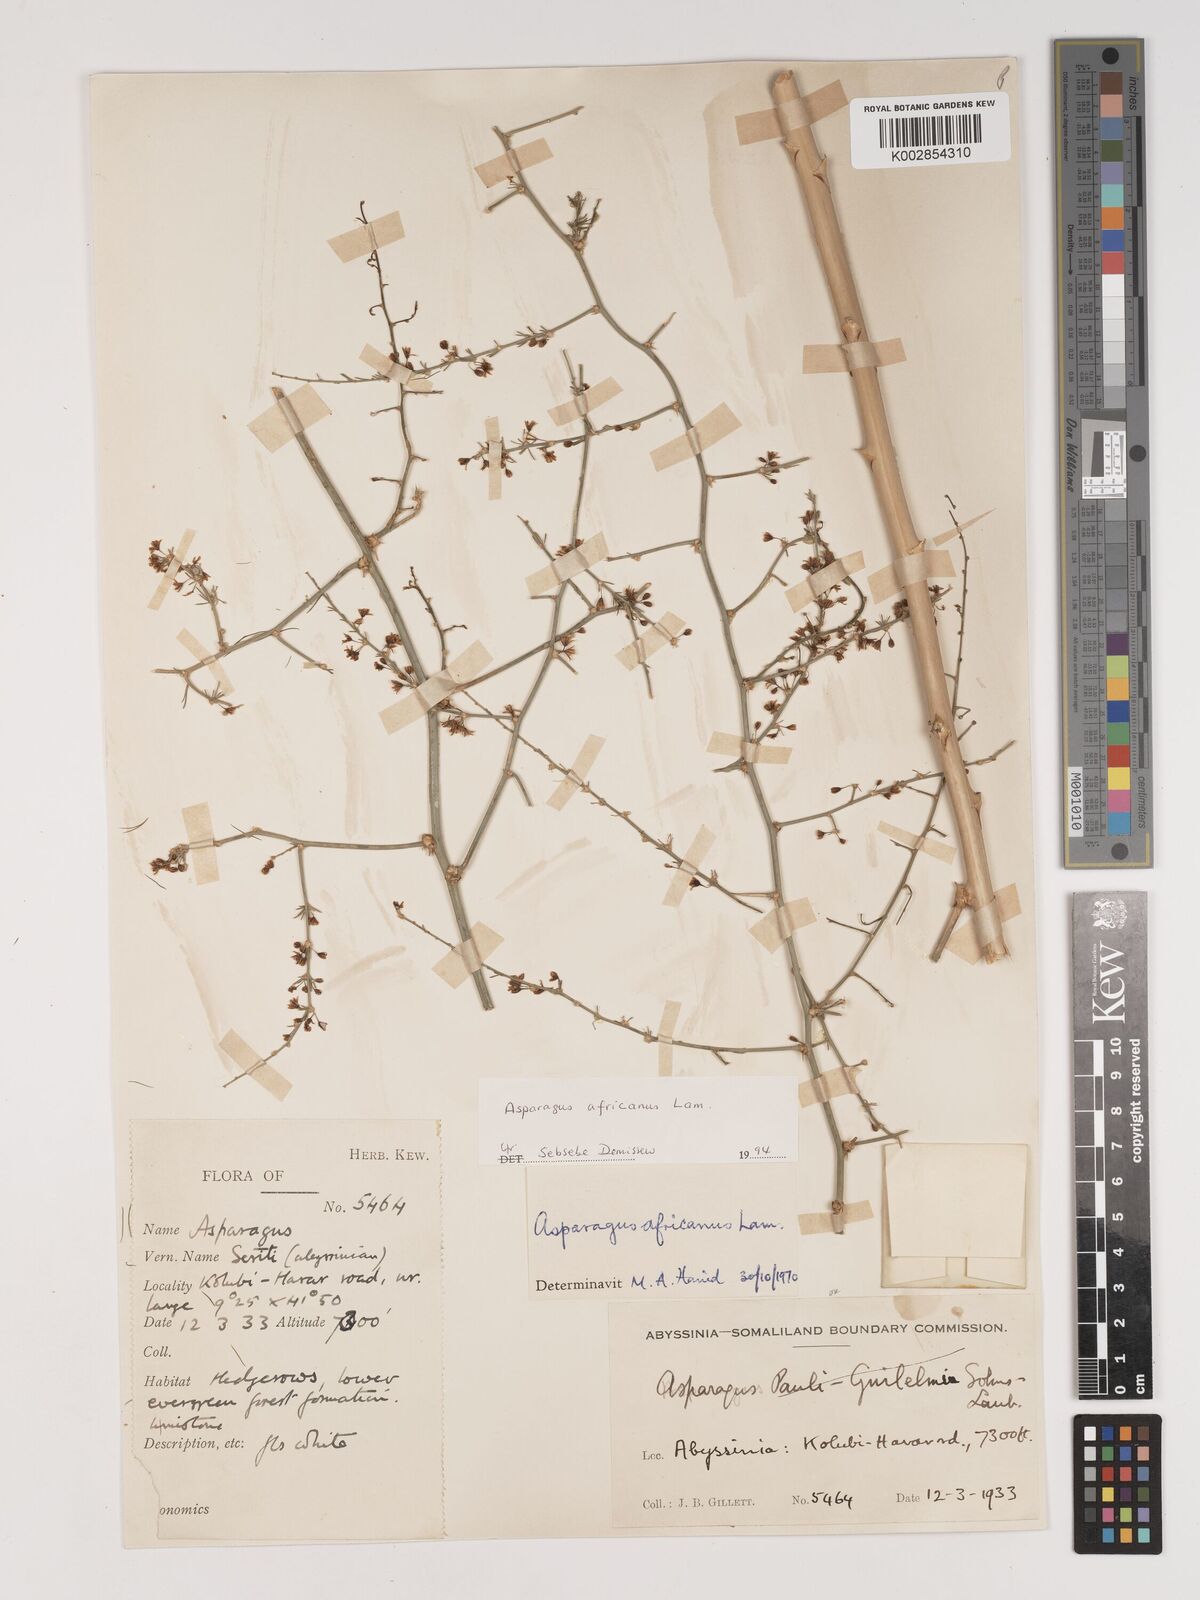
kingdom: Plantae
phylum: Tracheophyta
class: Liliopsida
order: Asparagales
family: Asparagaceae
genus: Asparagus
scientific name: Asparagus africanus
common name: Asparagus-fern
